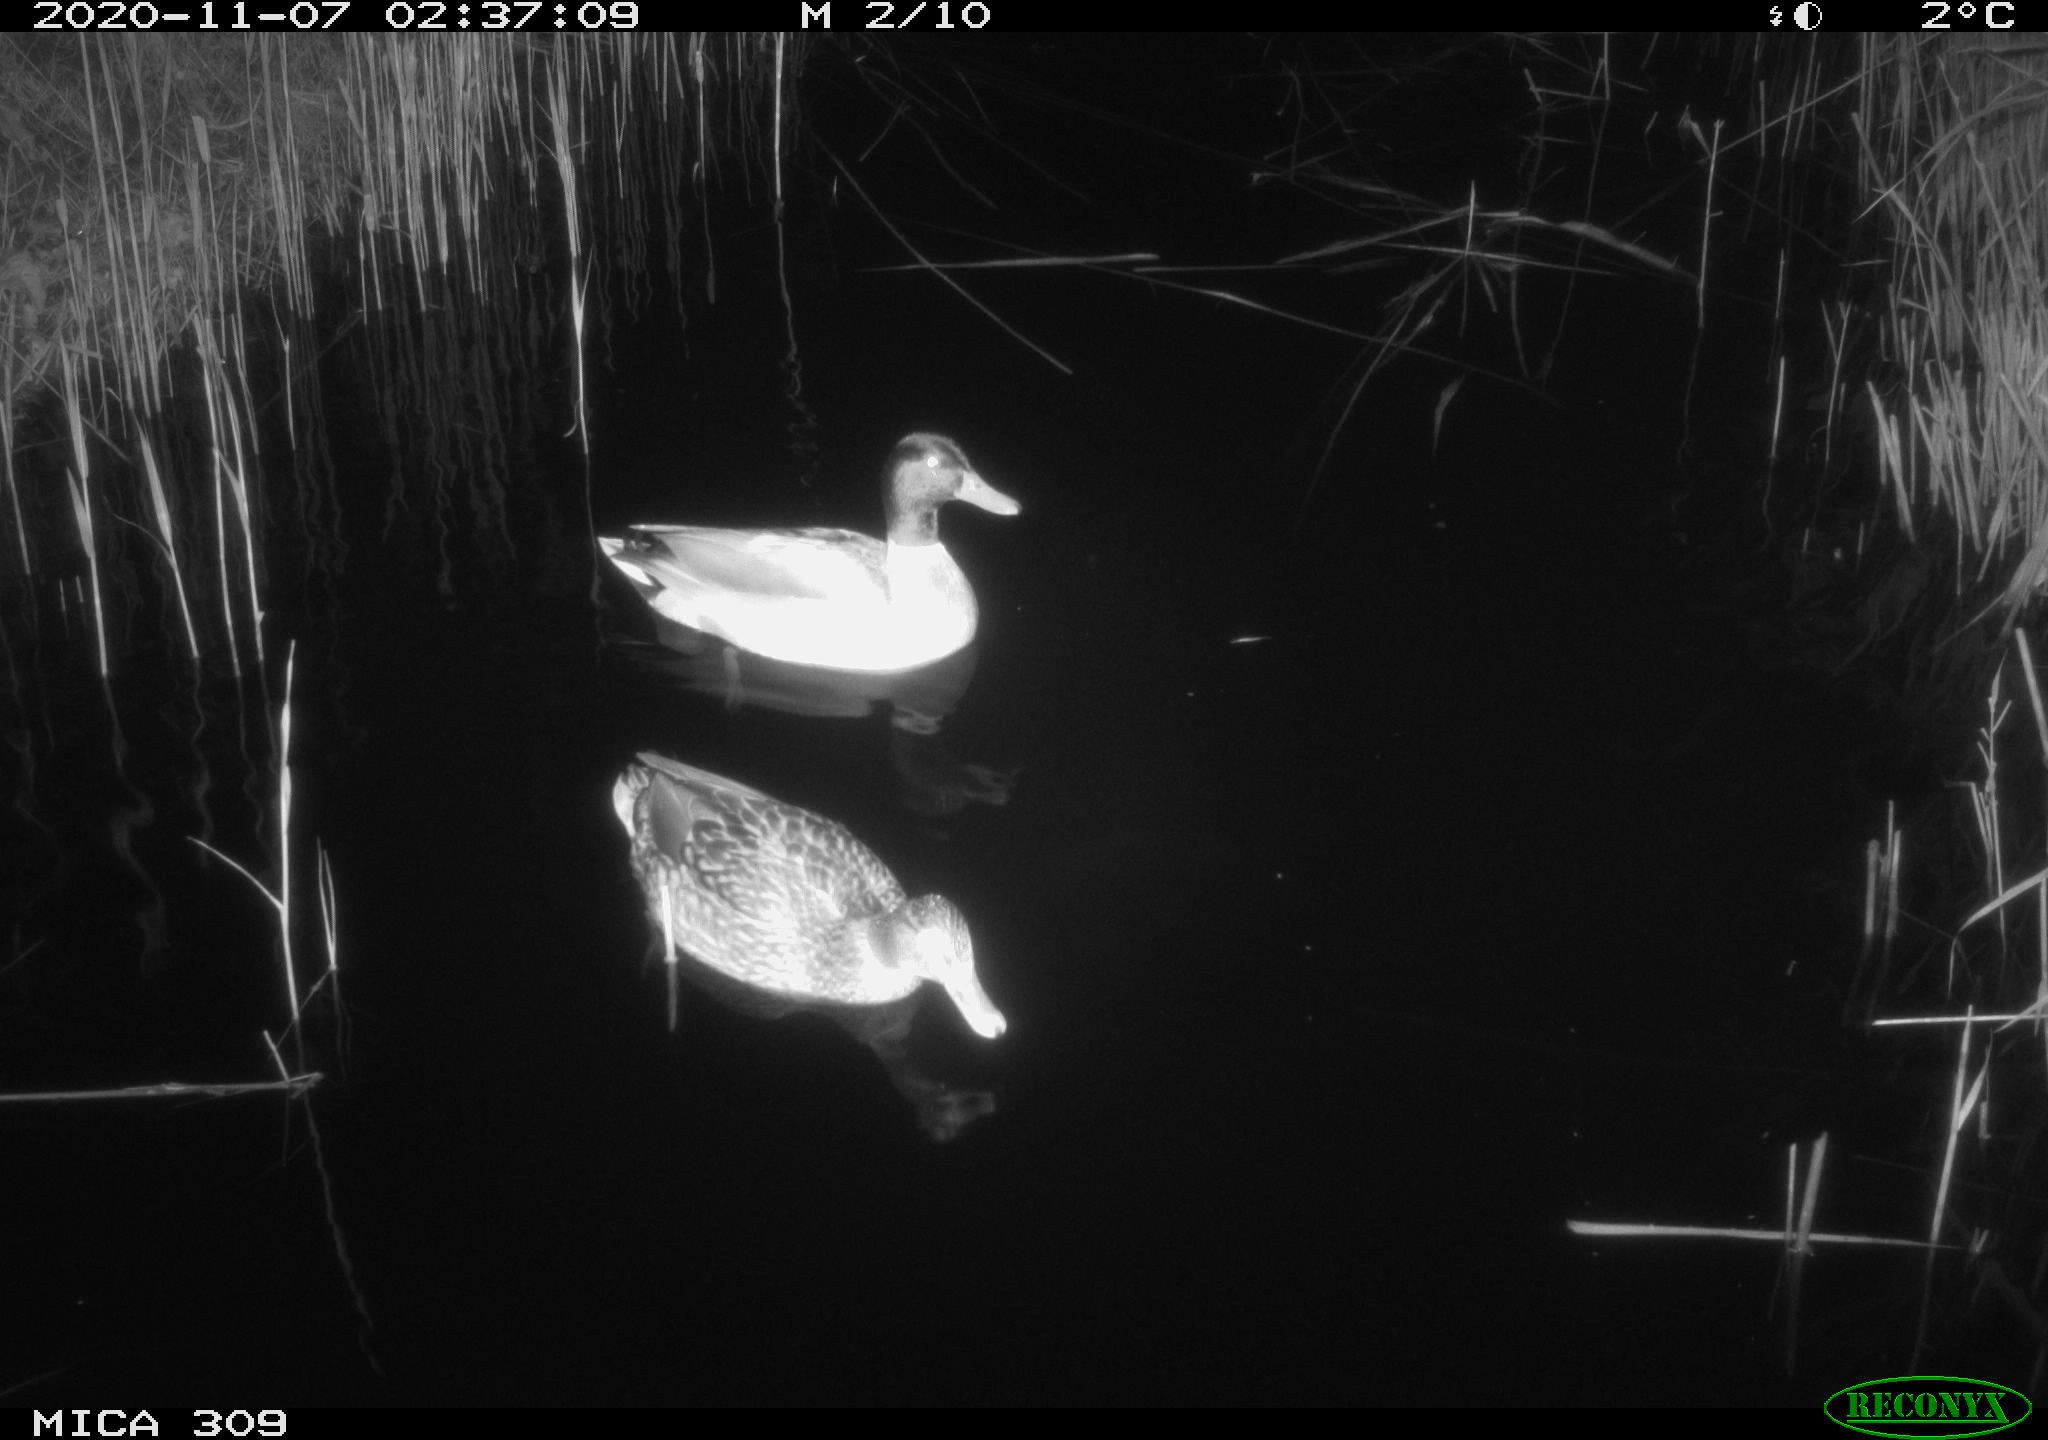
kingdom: Animalia
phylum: Chordata
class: Aves
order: Anseriformes
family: Anatidae
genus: Anas
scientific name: Anas platyrhynchos
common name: Mallard
